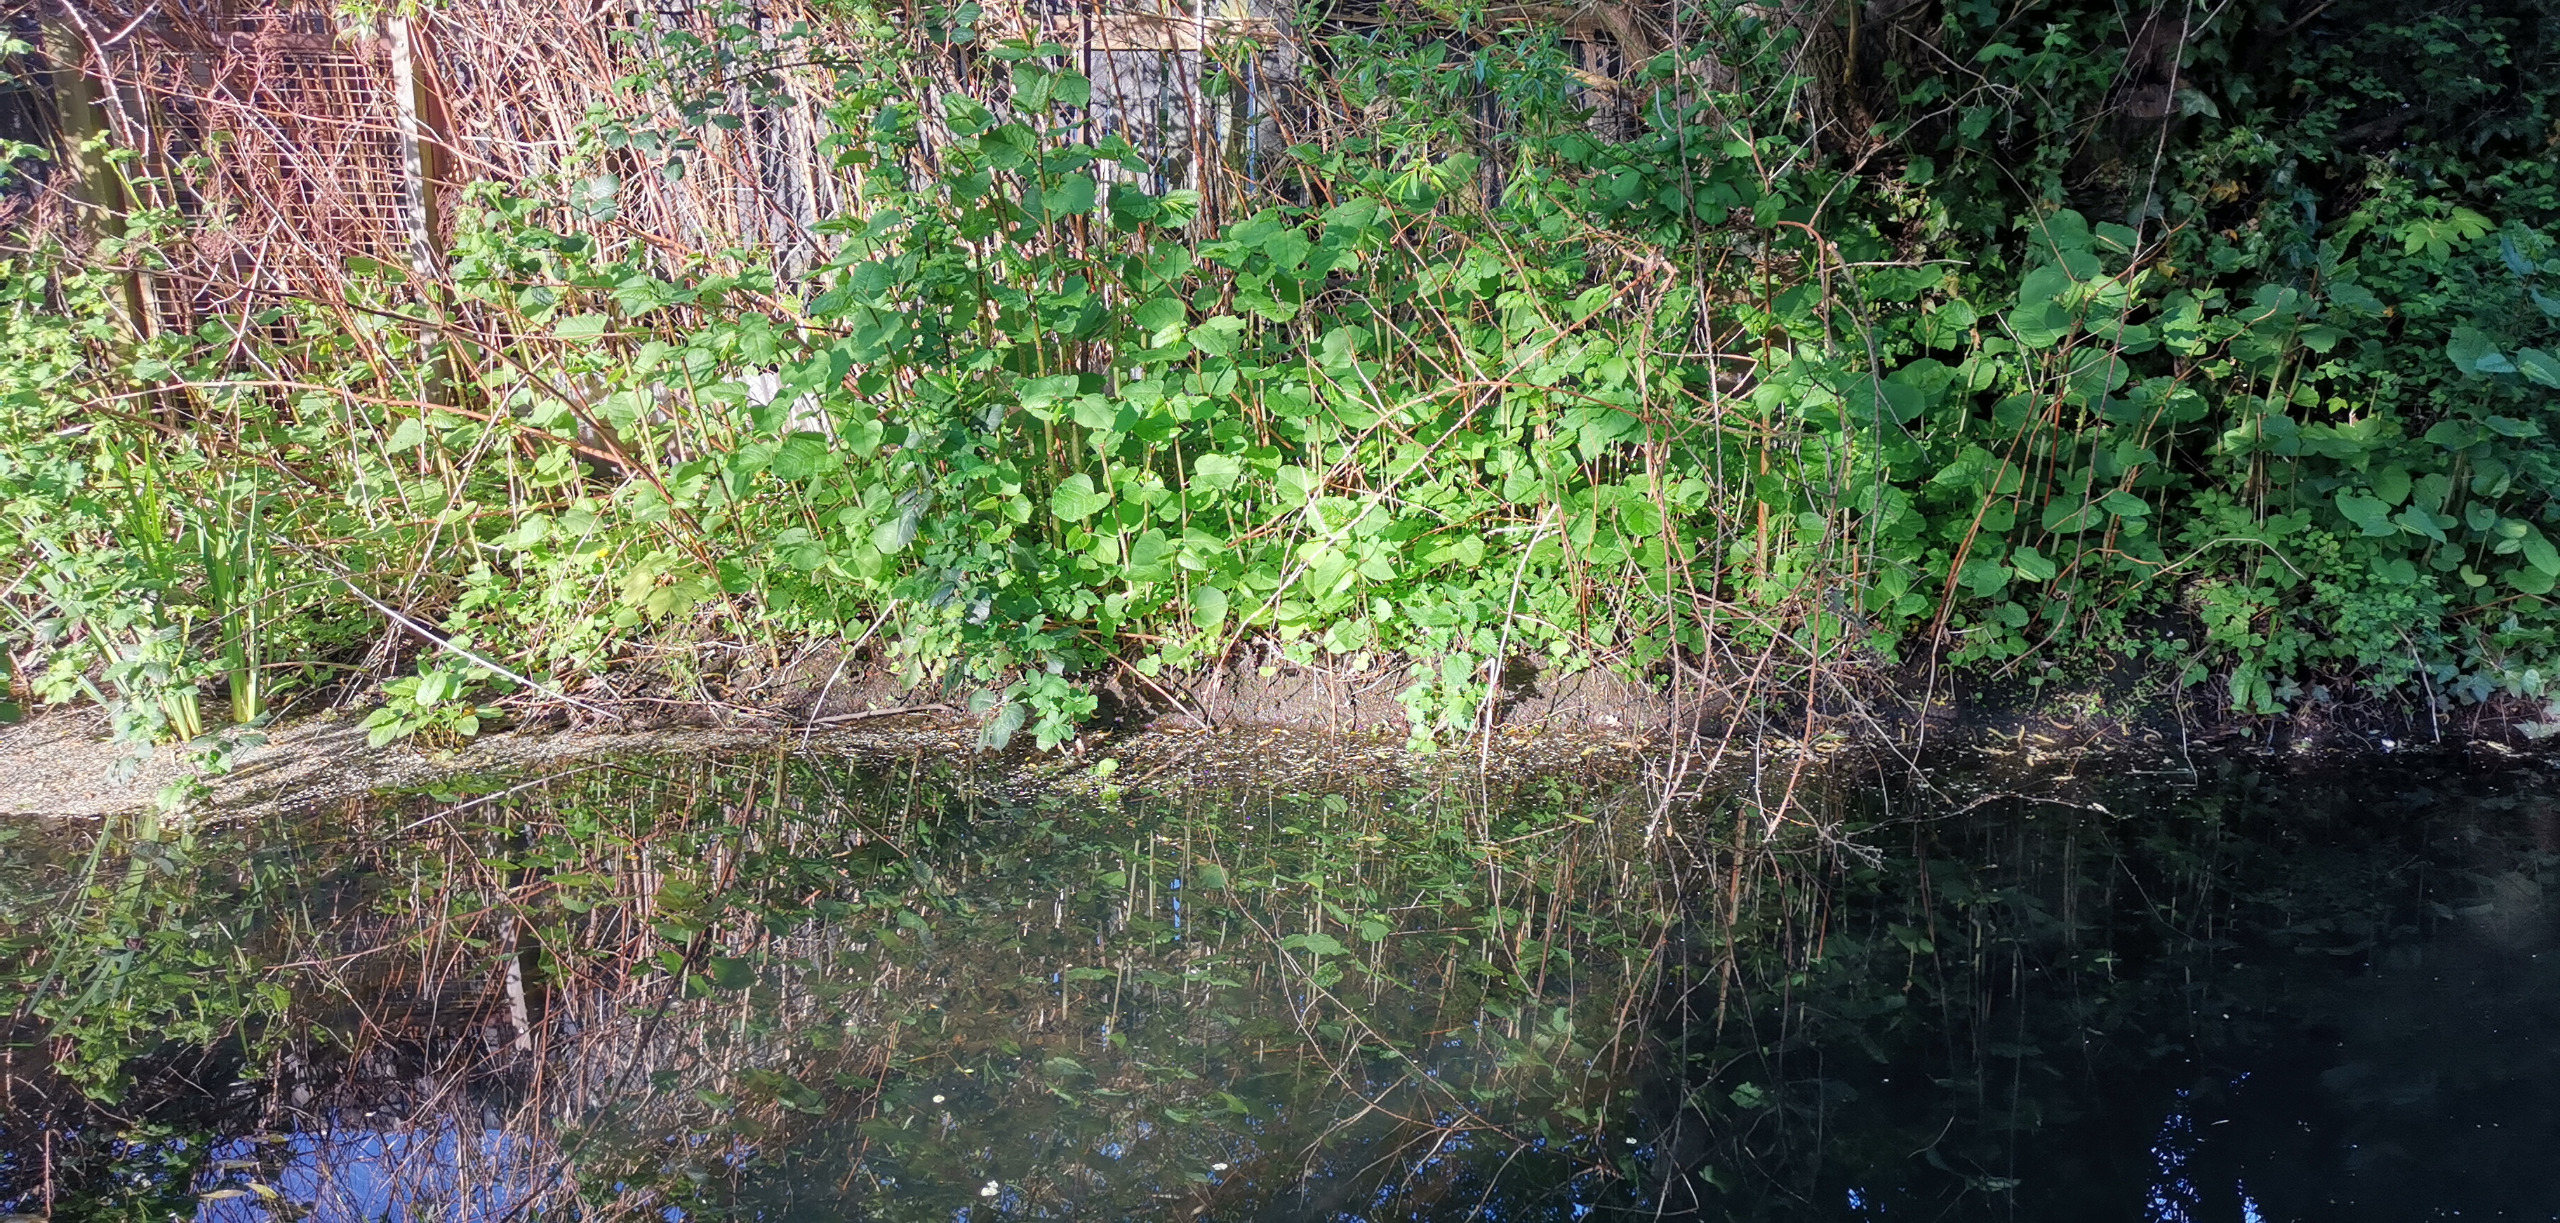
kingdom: Plantae
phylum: Tracheophyta
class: Magnoliopsida
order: Caryophyllales
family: Polygonaceae
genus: Reynoutria
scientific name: Reynoutria
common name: Pileurt (Reynoutria-slægten)
